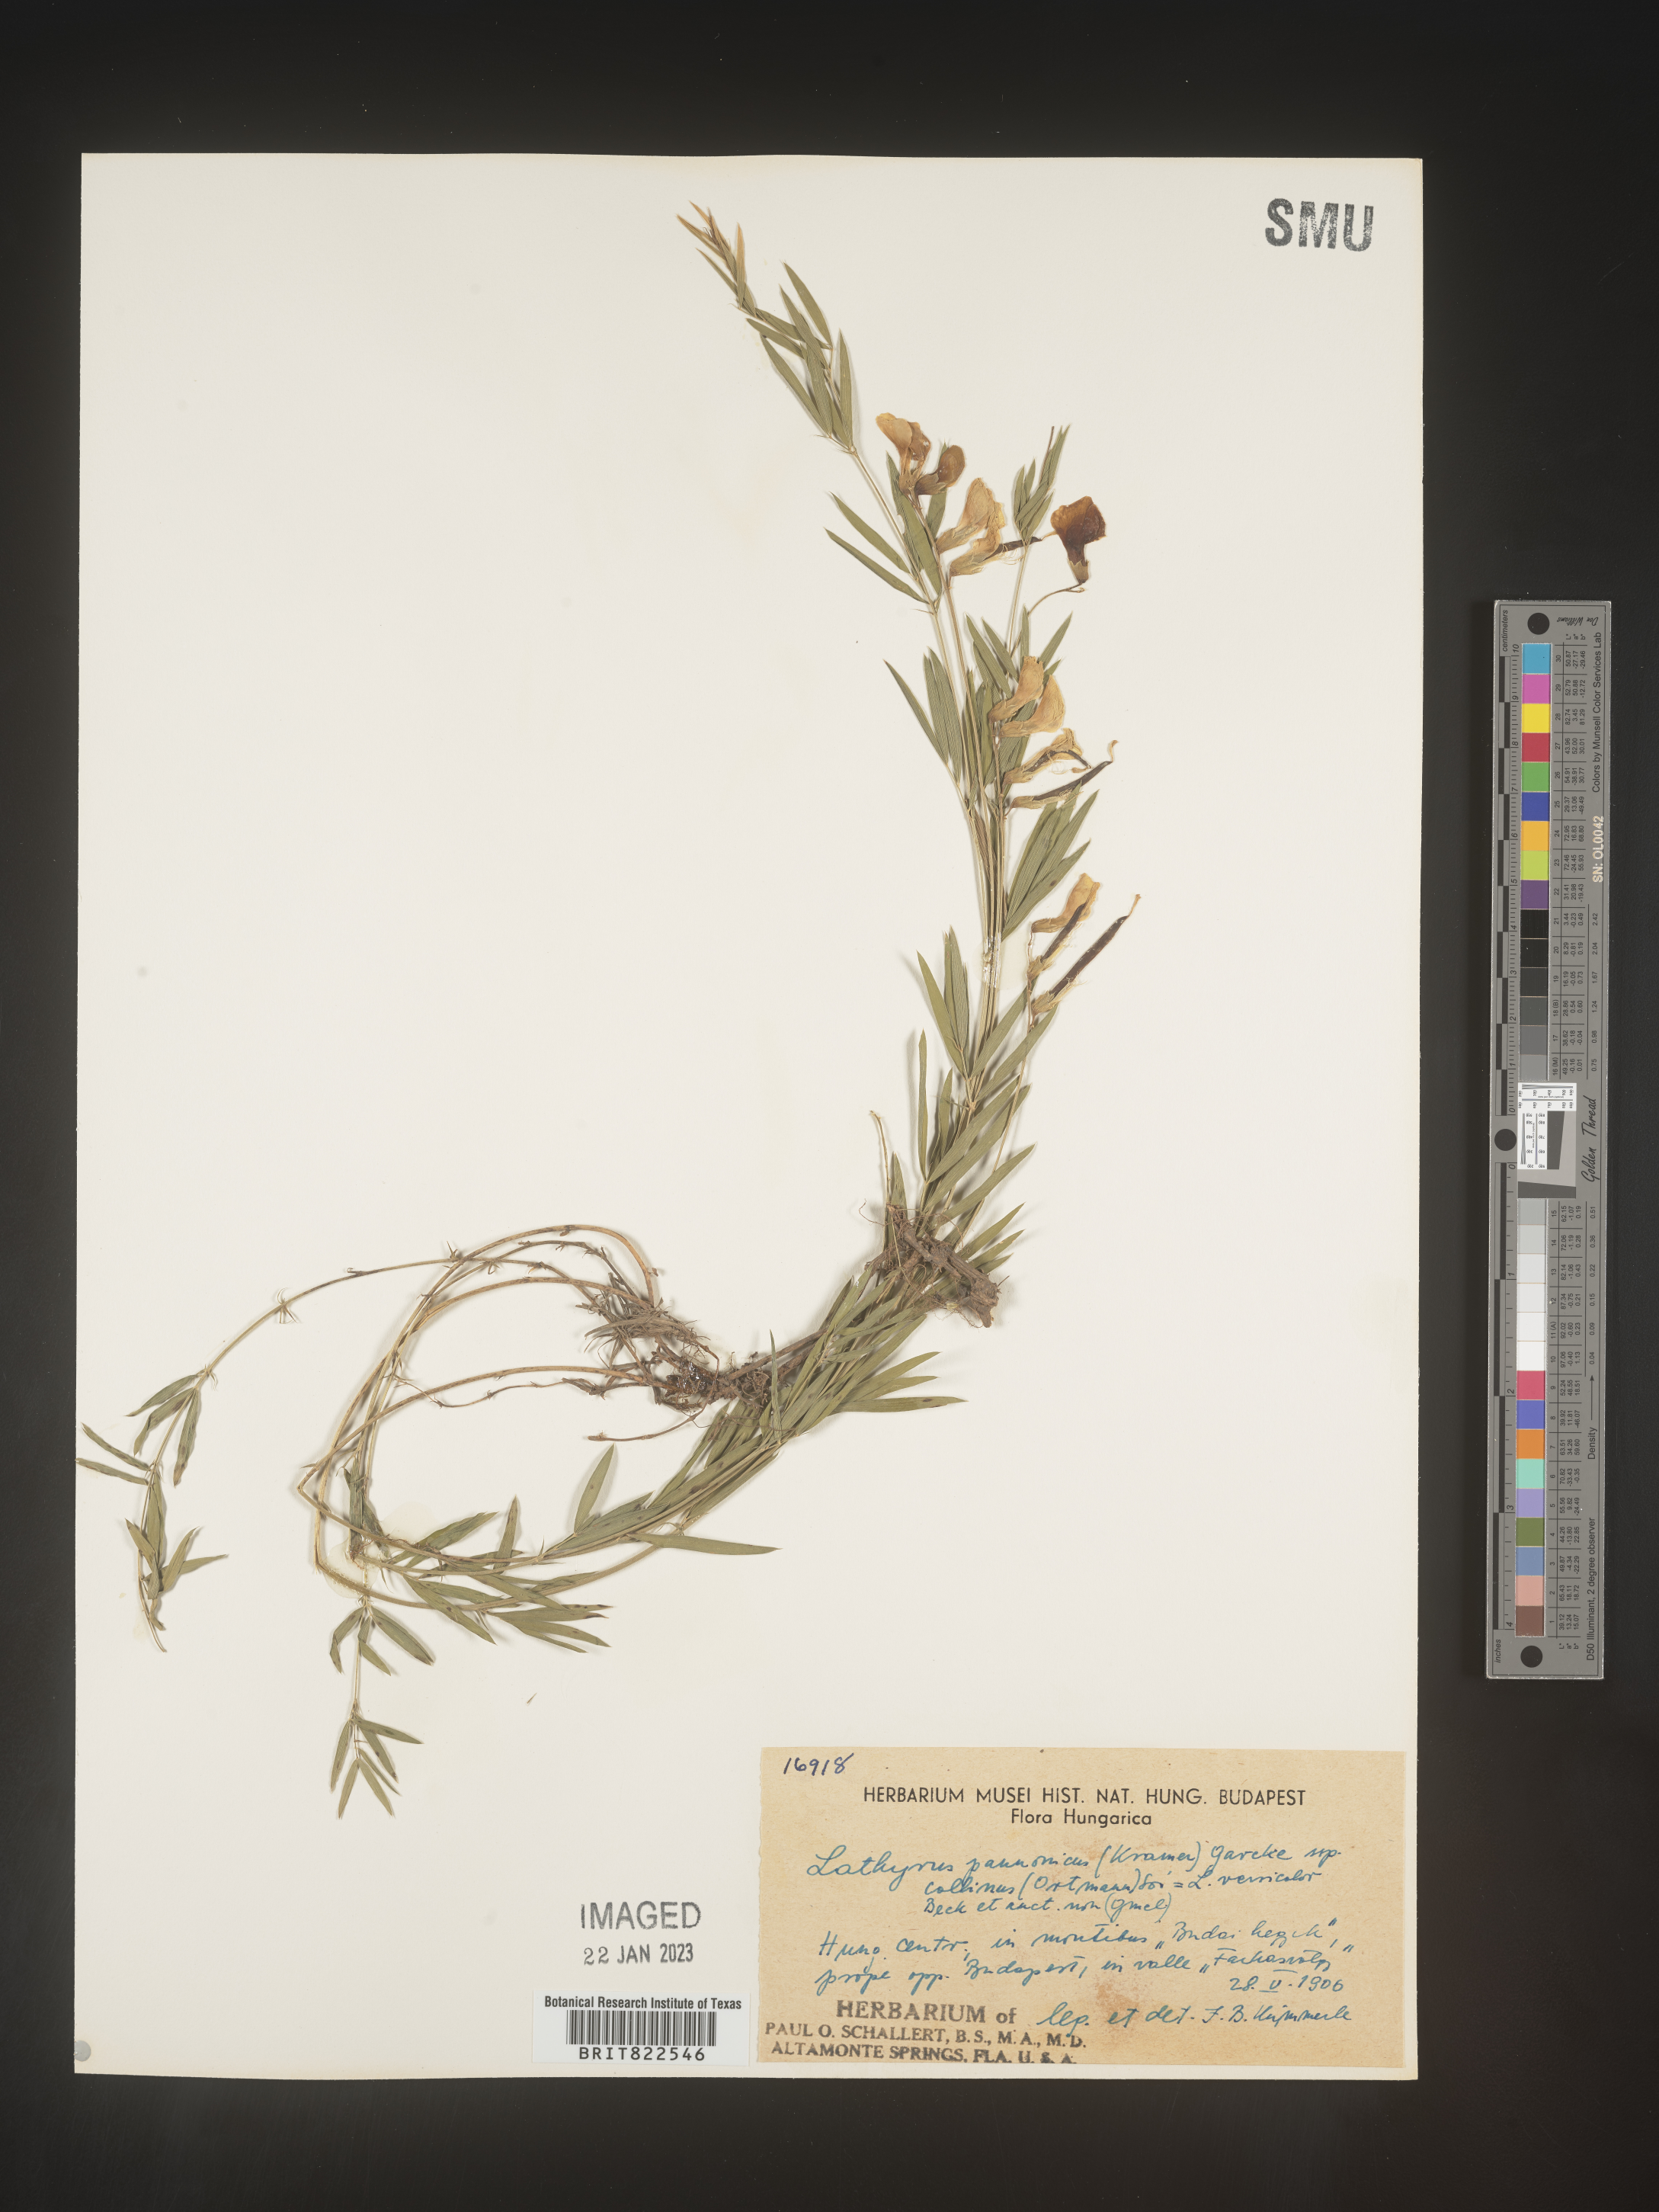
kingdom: Plantae
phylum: Tracheophyta
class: Magnoliopsida
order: Fabales
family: Fabaceae
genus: Lathyrus
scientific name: Lathyrus
